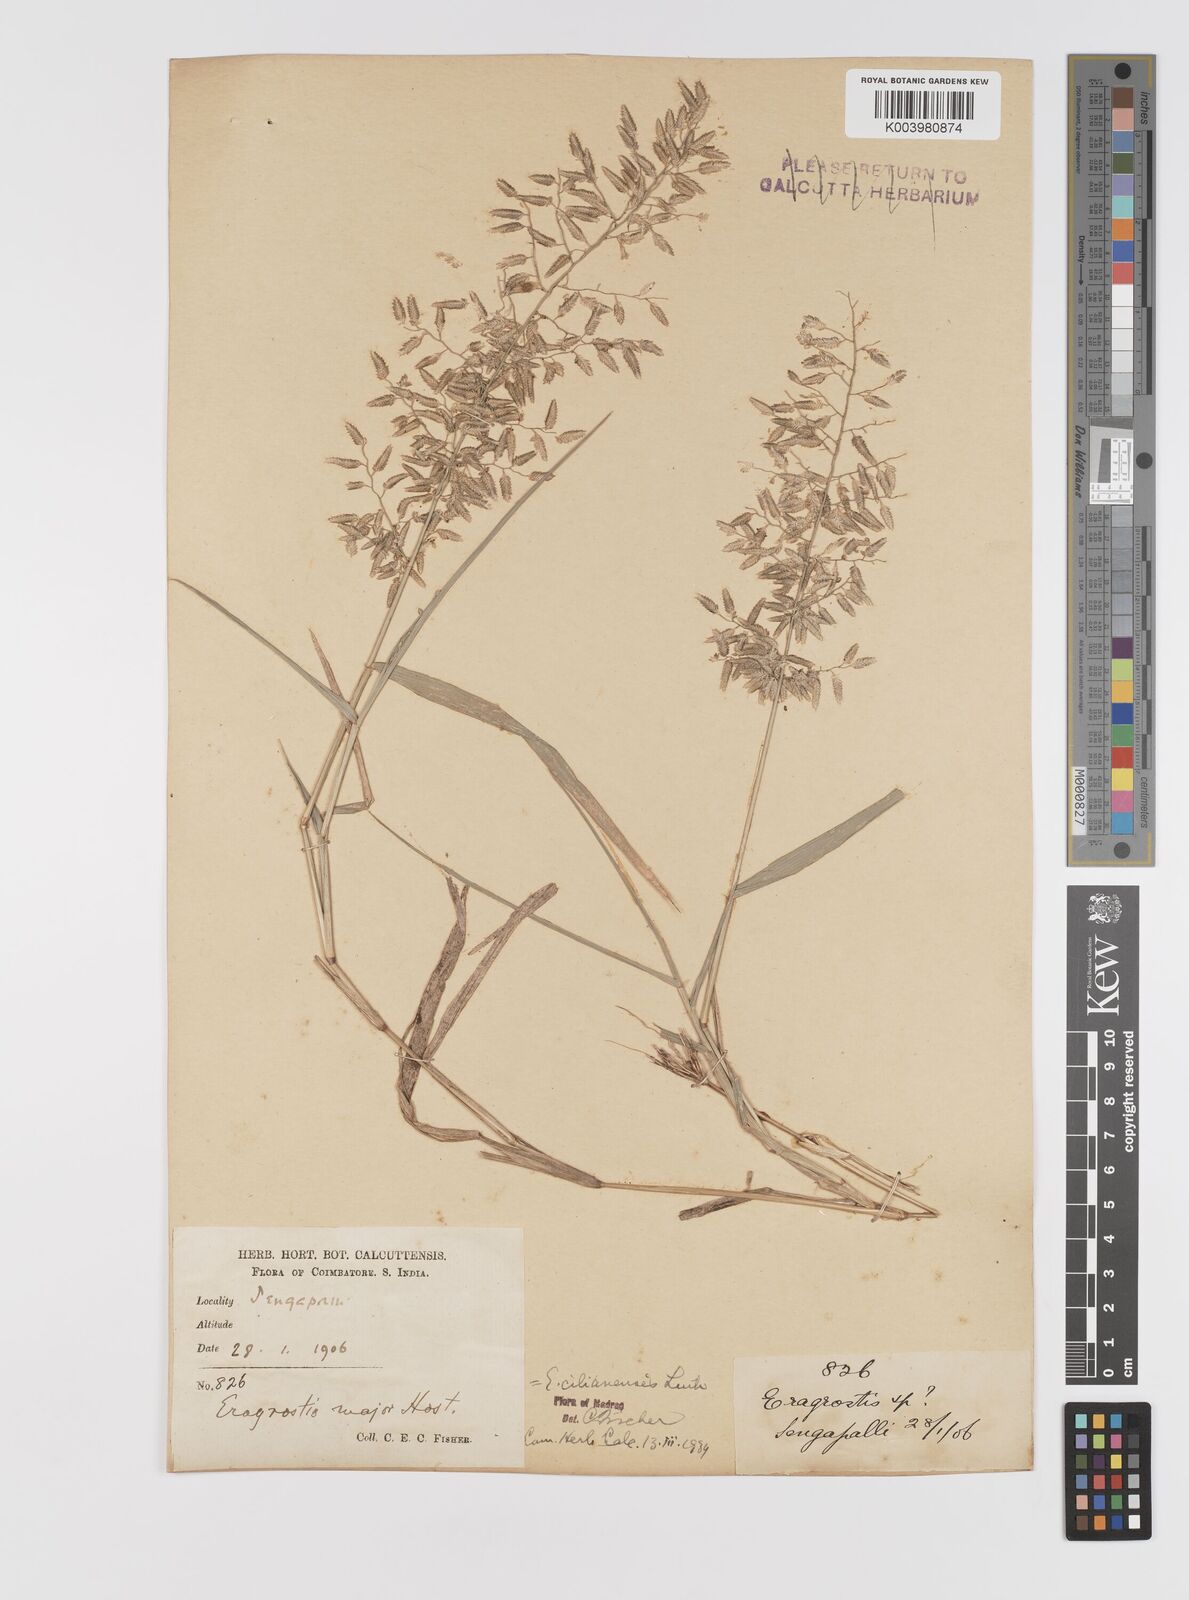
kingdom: Plantae
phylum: Tracheophyta
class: Liliopsida
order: Poales
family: Poaceae
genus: Eragrostis
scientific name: Eragrostis cilianensis
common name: Stinkgrass
